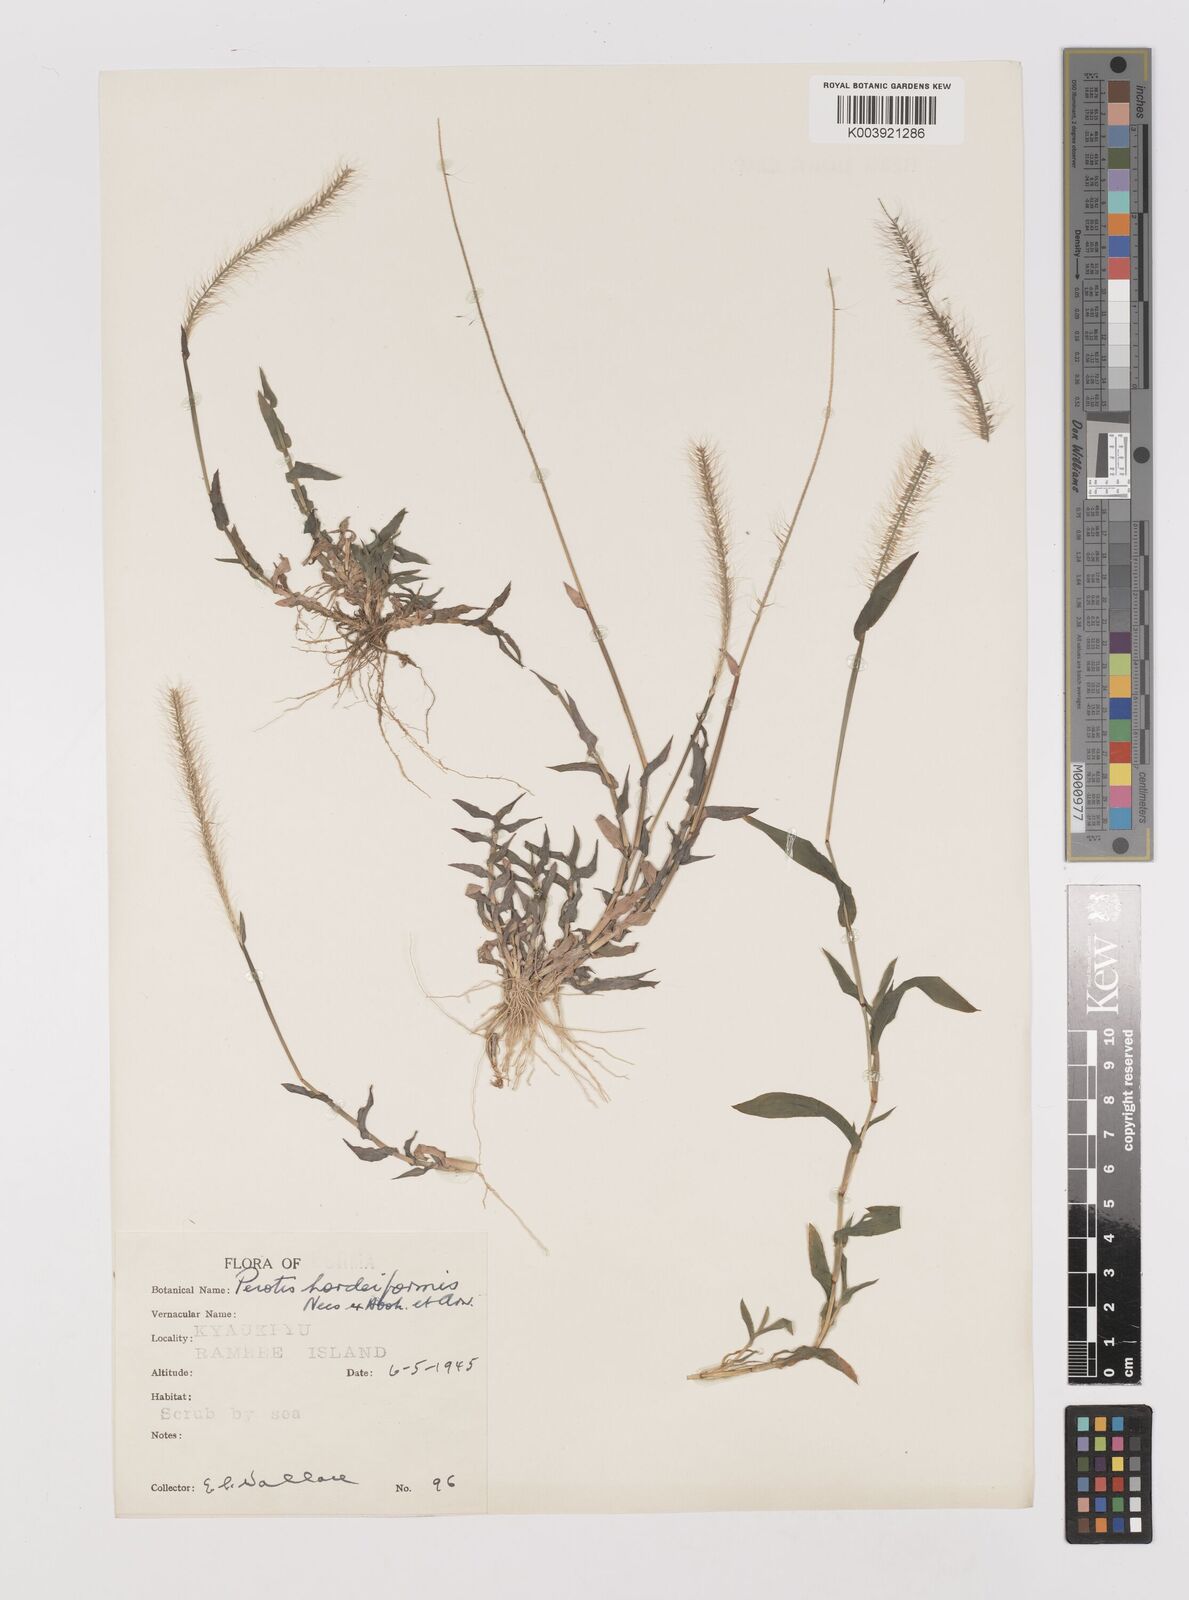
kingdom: Plantae
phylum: Tracheophyta
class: Liliopsida
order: Poales
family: Poaceae
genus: Perotis
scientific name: Perotis hordeiformis
